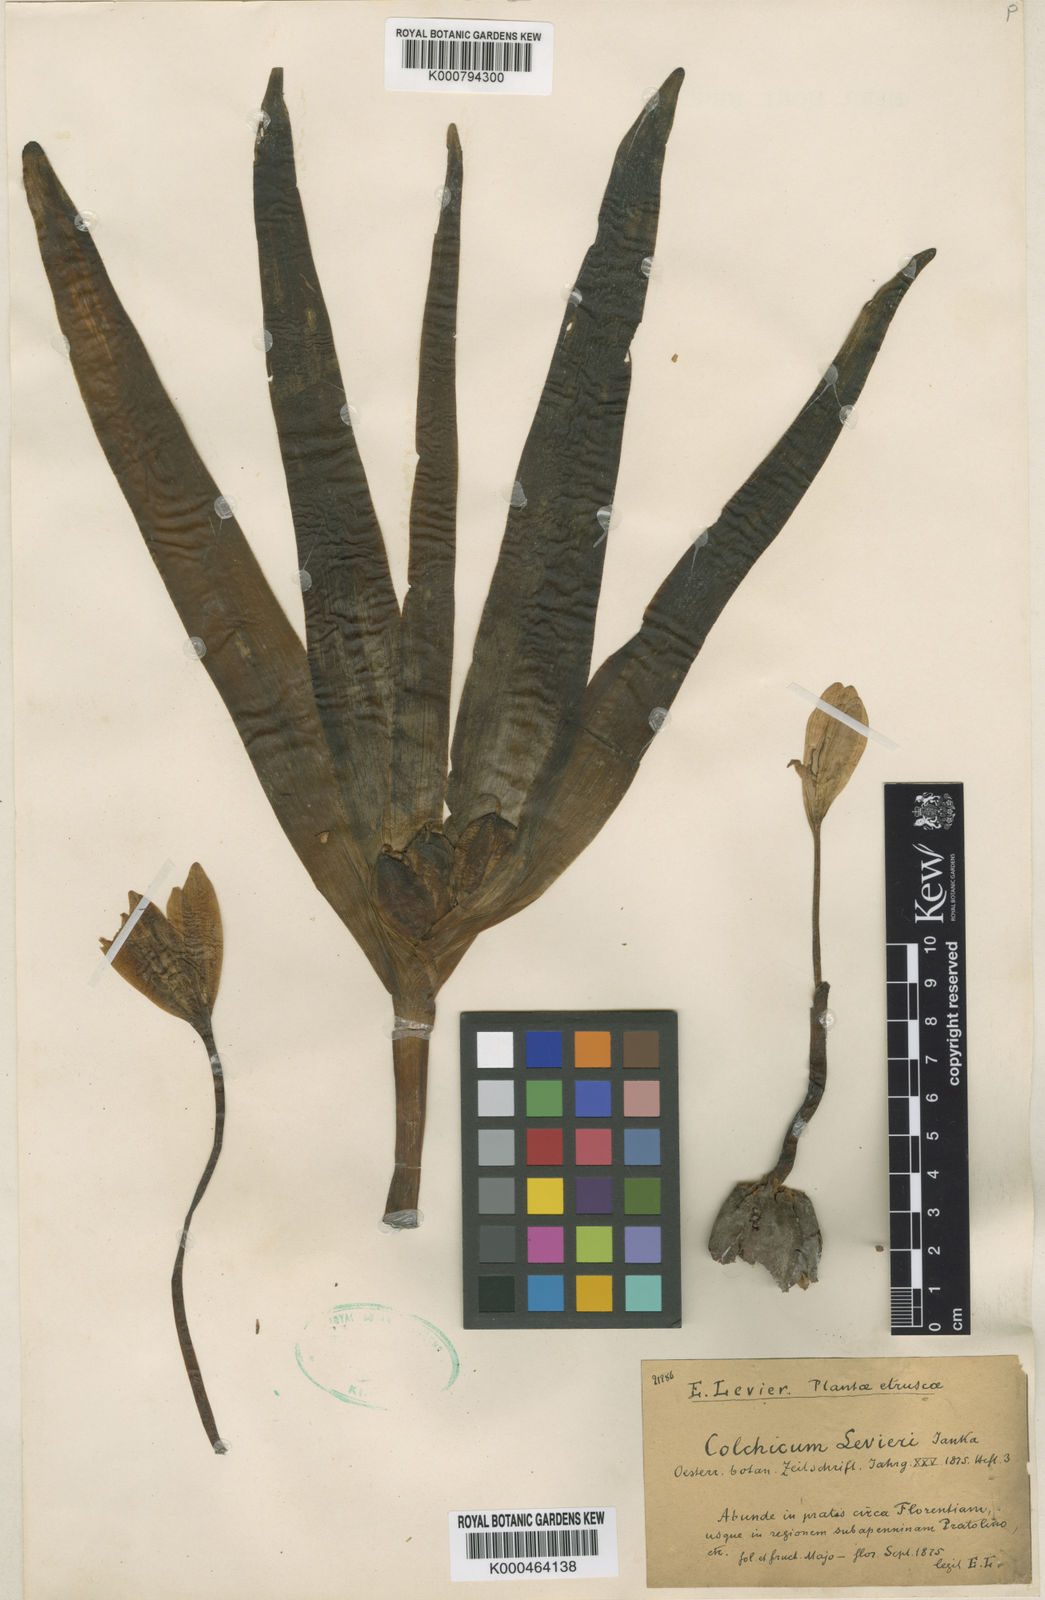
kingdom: Plantae
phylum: Tracheophyta
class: Liliopsida
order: Liliales
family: Colchicaceae
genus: Colchicum
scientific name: Colchicum lusitanum
